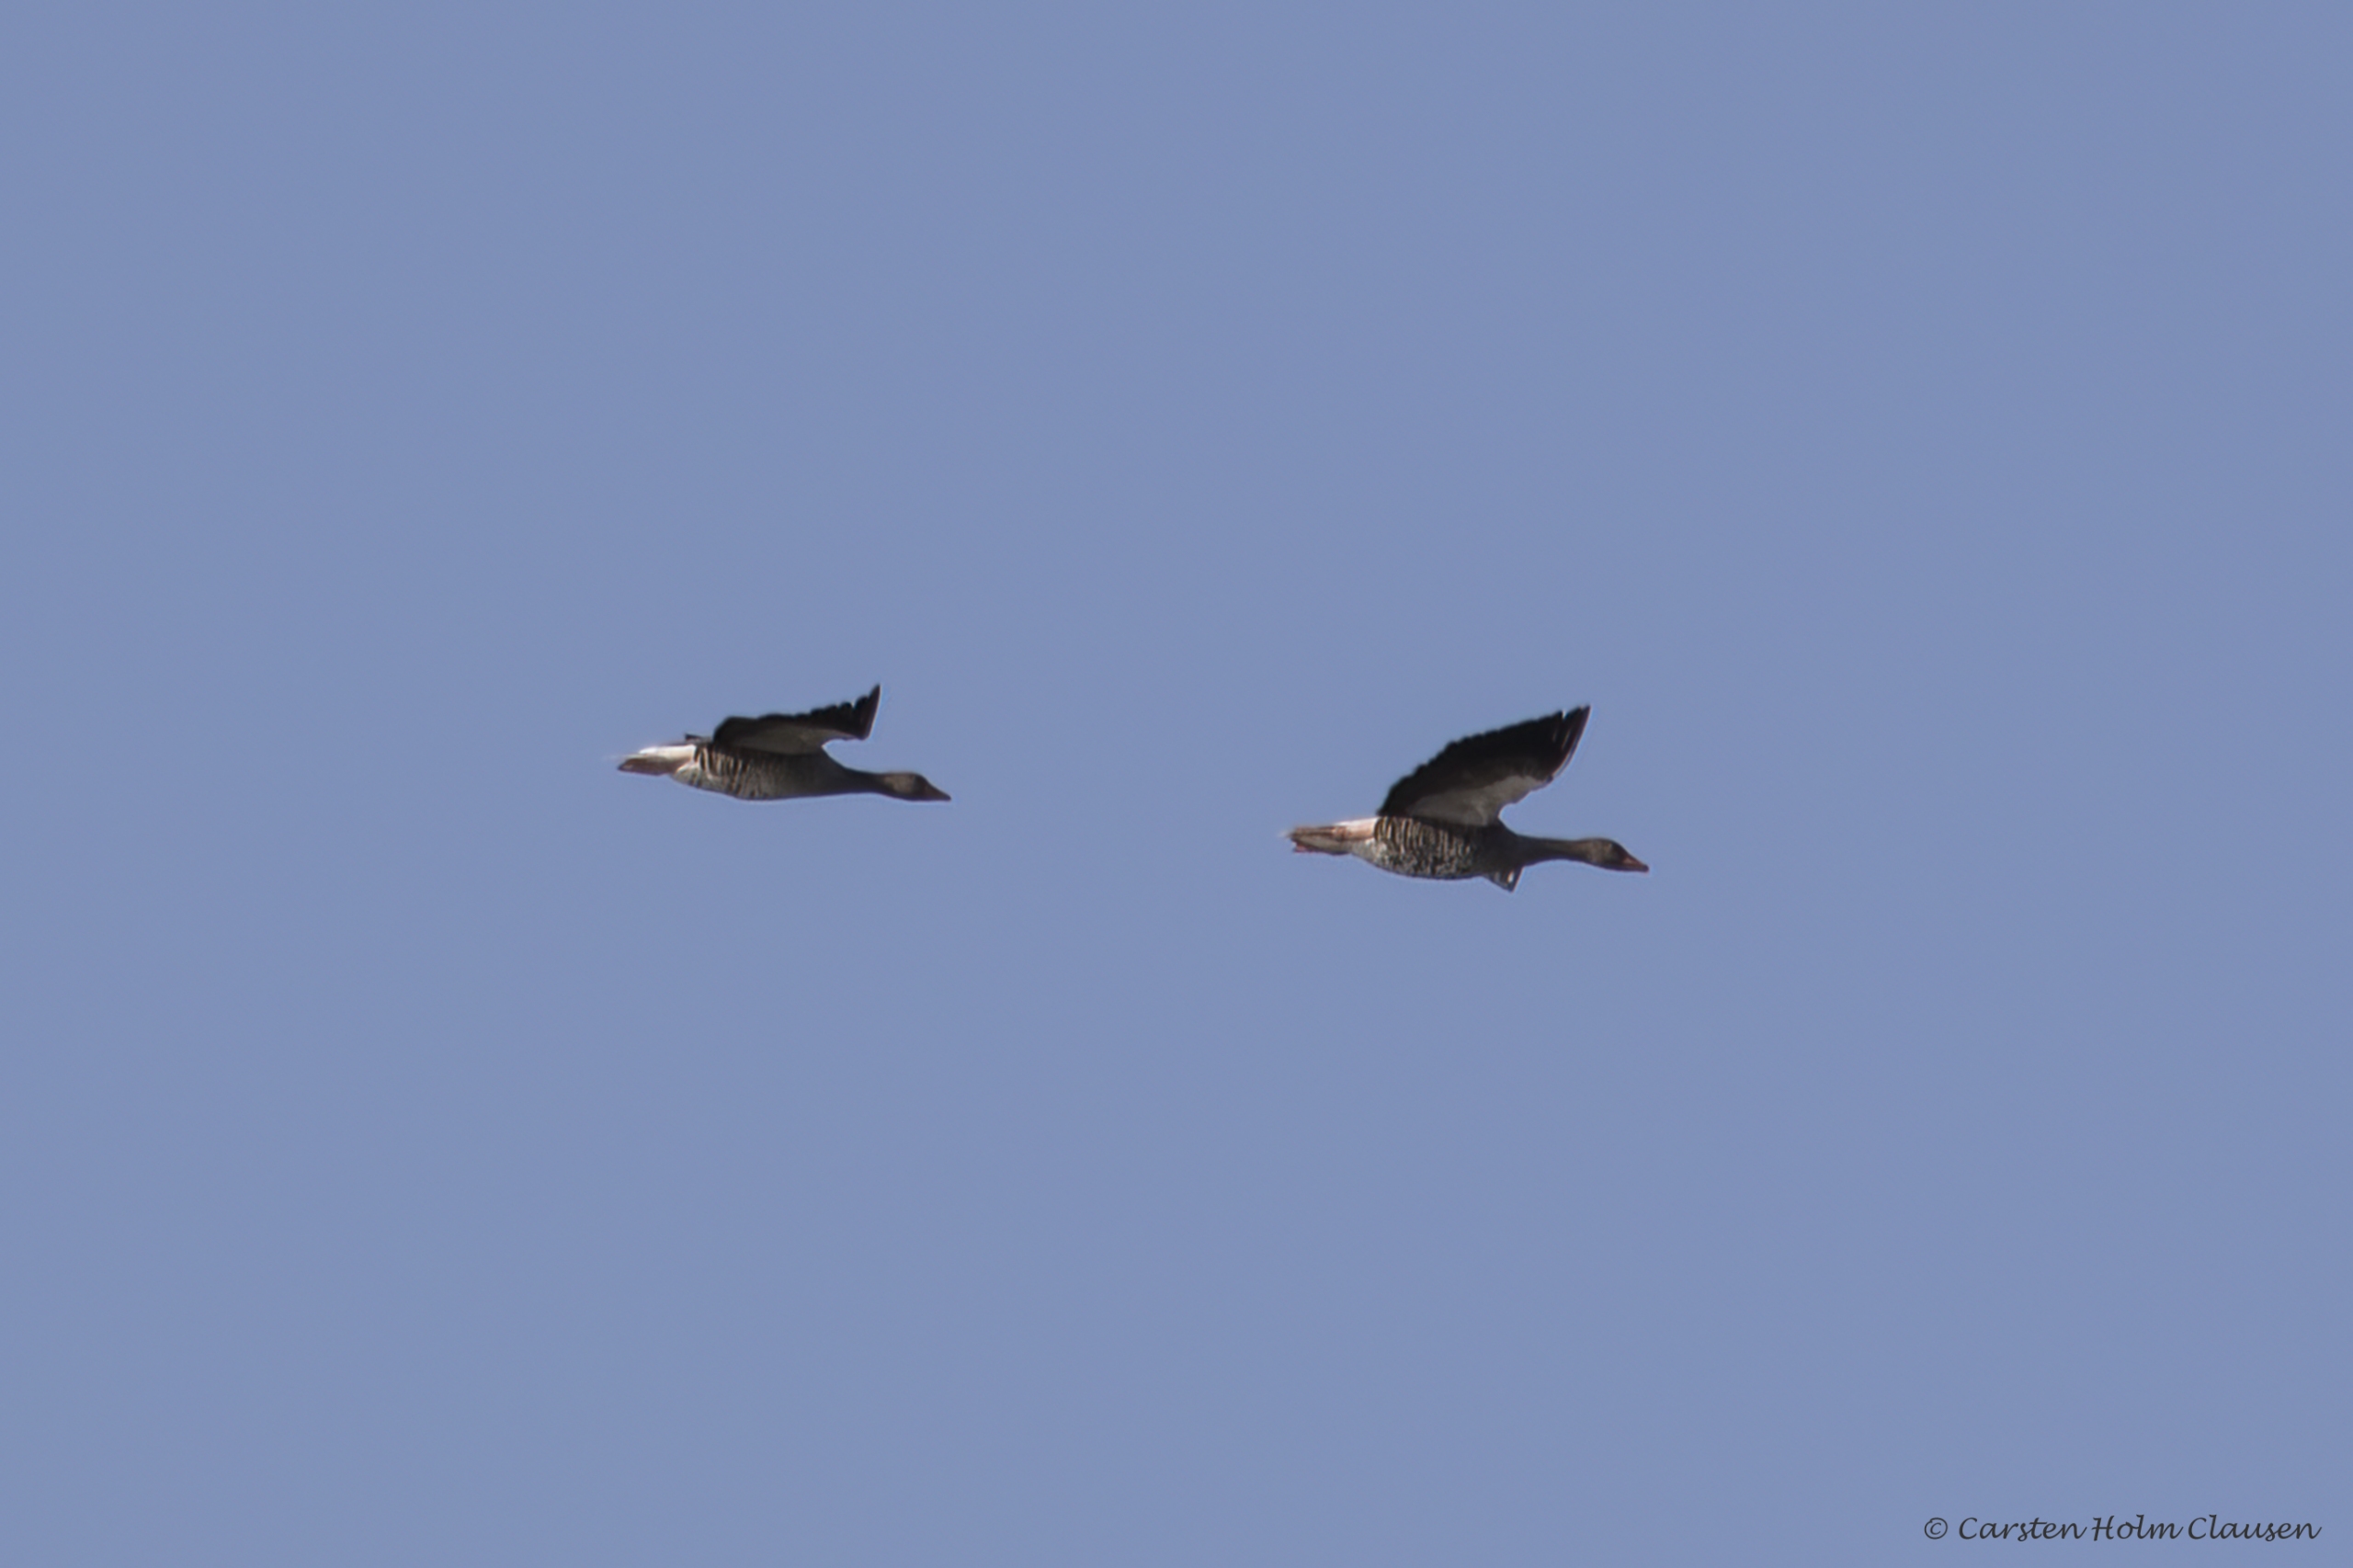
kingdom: Animalia
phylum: Chordata
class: Aves
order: Anseriformes
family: Anatidae
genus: Anser
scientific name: Anser anser
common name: Grågås
